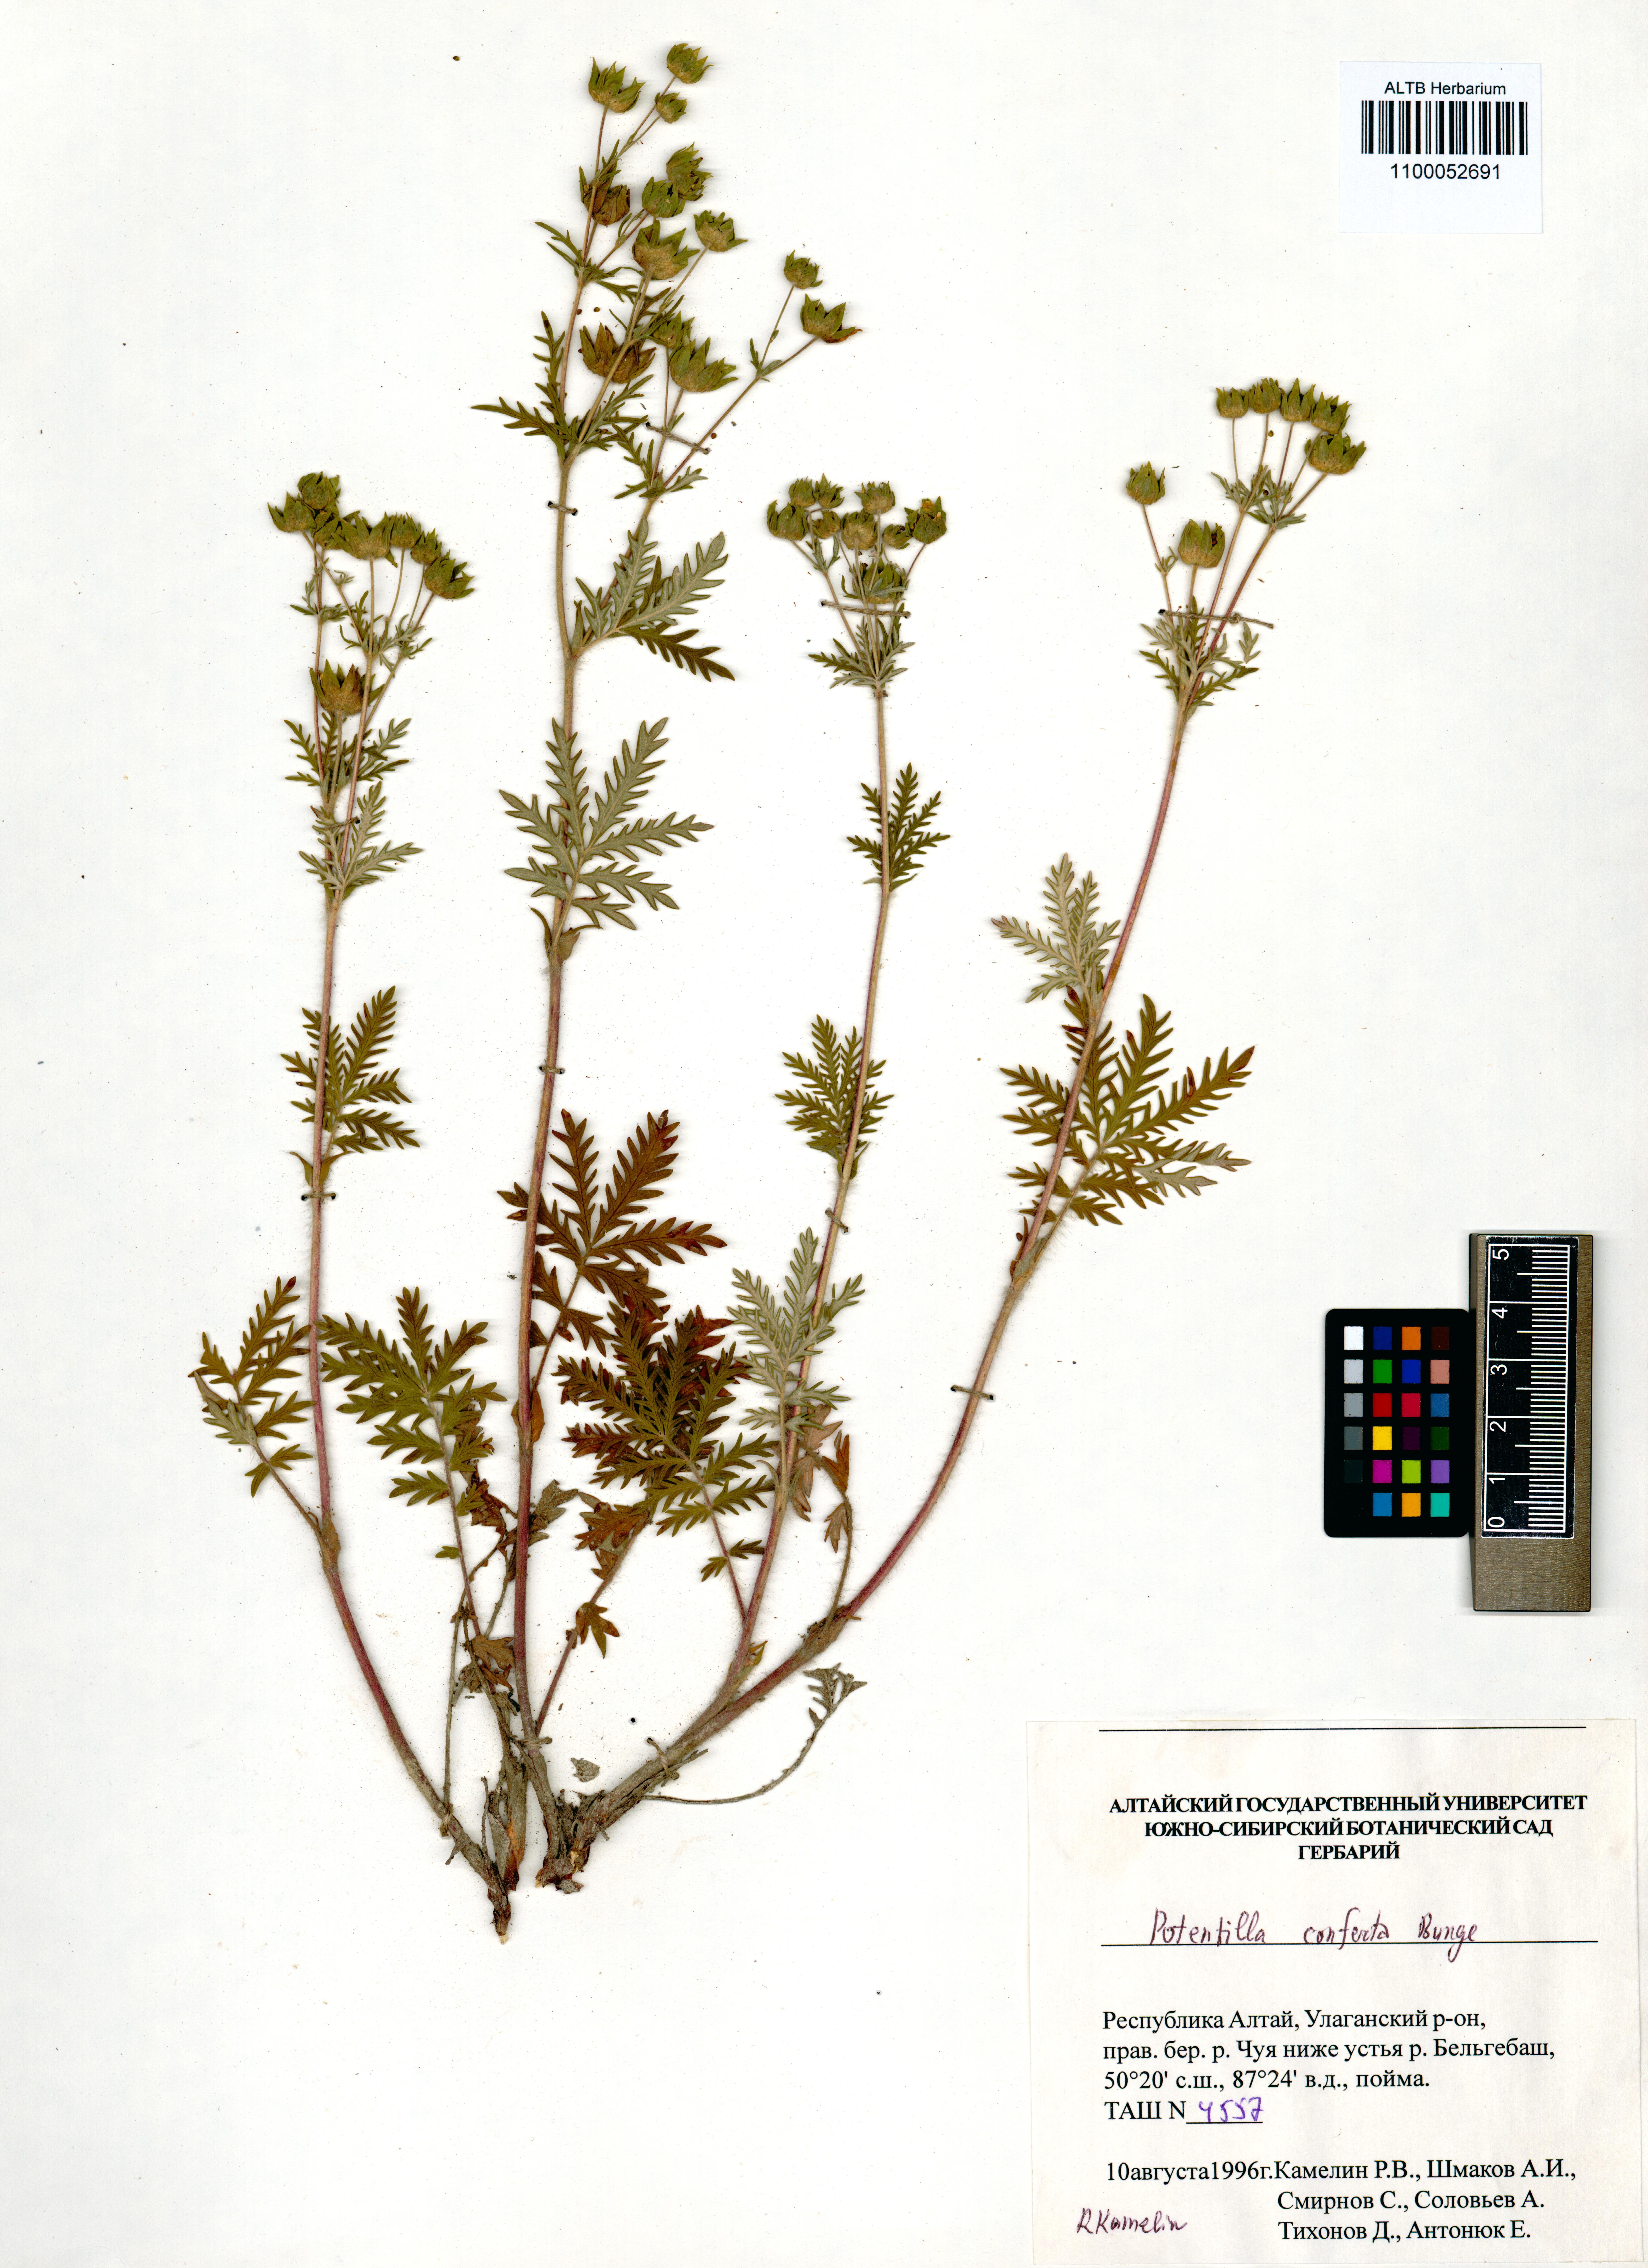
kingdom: Plantae
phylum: Tracheophyta
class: Magnoliopsida
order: Rosales
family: Rosaceae
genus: Potentilla
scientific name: Potentilla conferta
